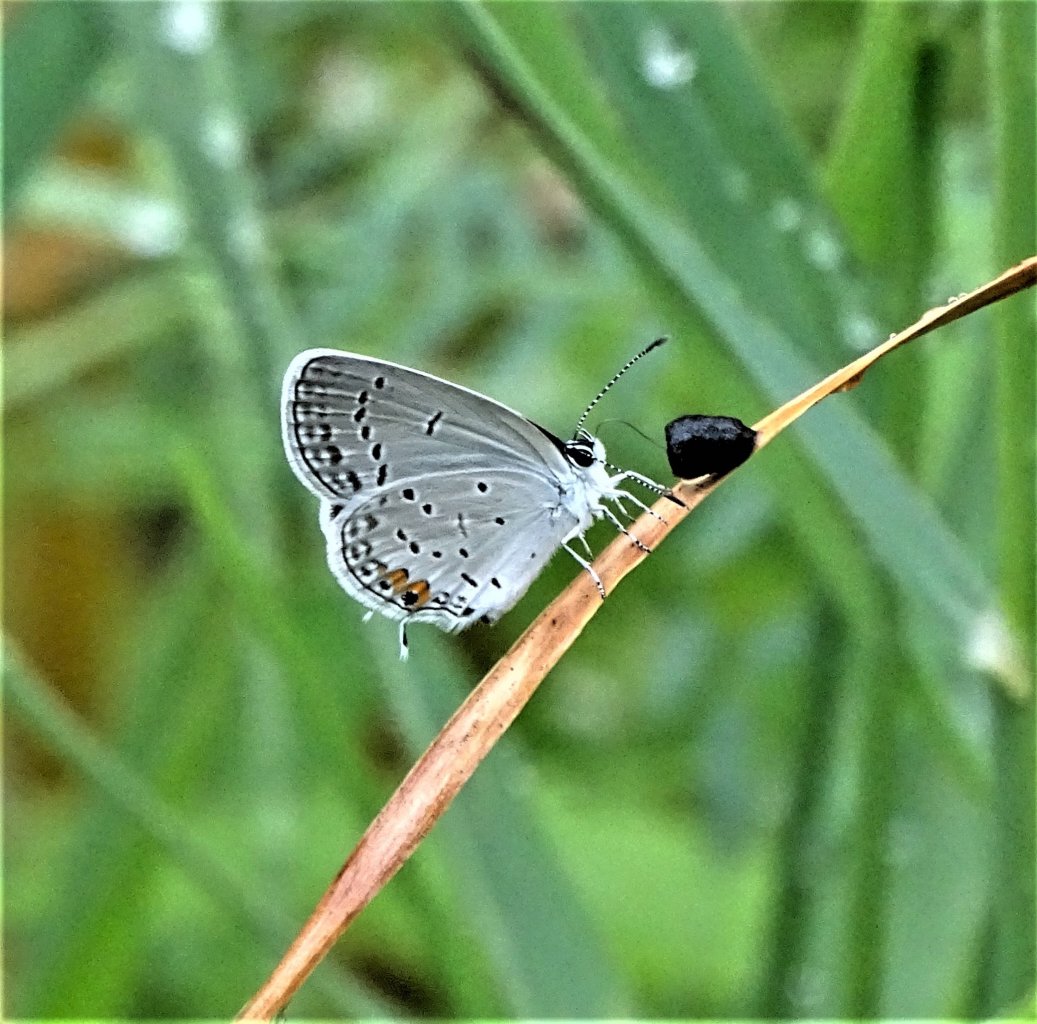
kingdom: Animalia
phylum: Arthropoda
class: Insecta
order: Lepidoptera
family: Lycaenidae
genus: Elkalyce
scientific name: Elkalyce comyntas
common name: Eastern Tailed-Blue
